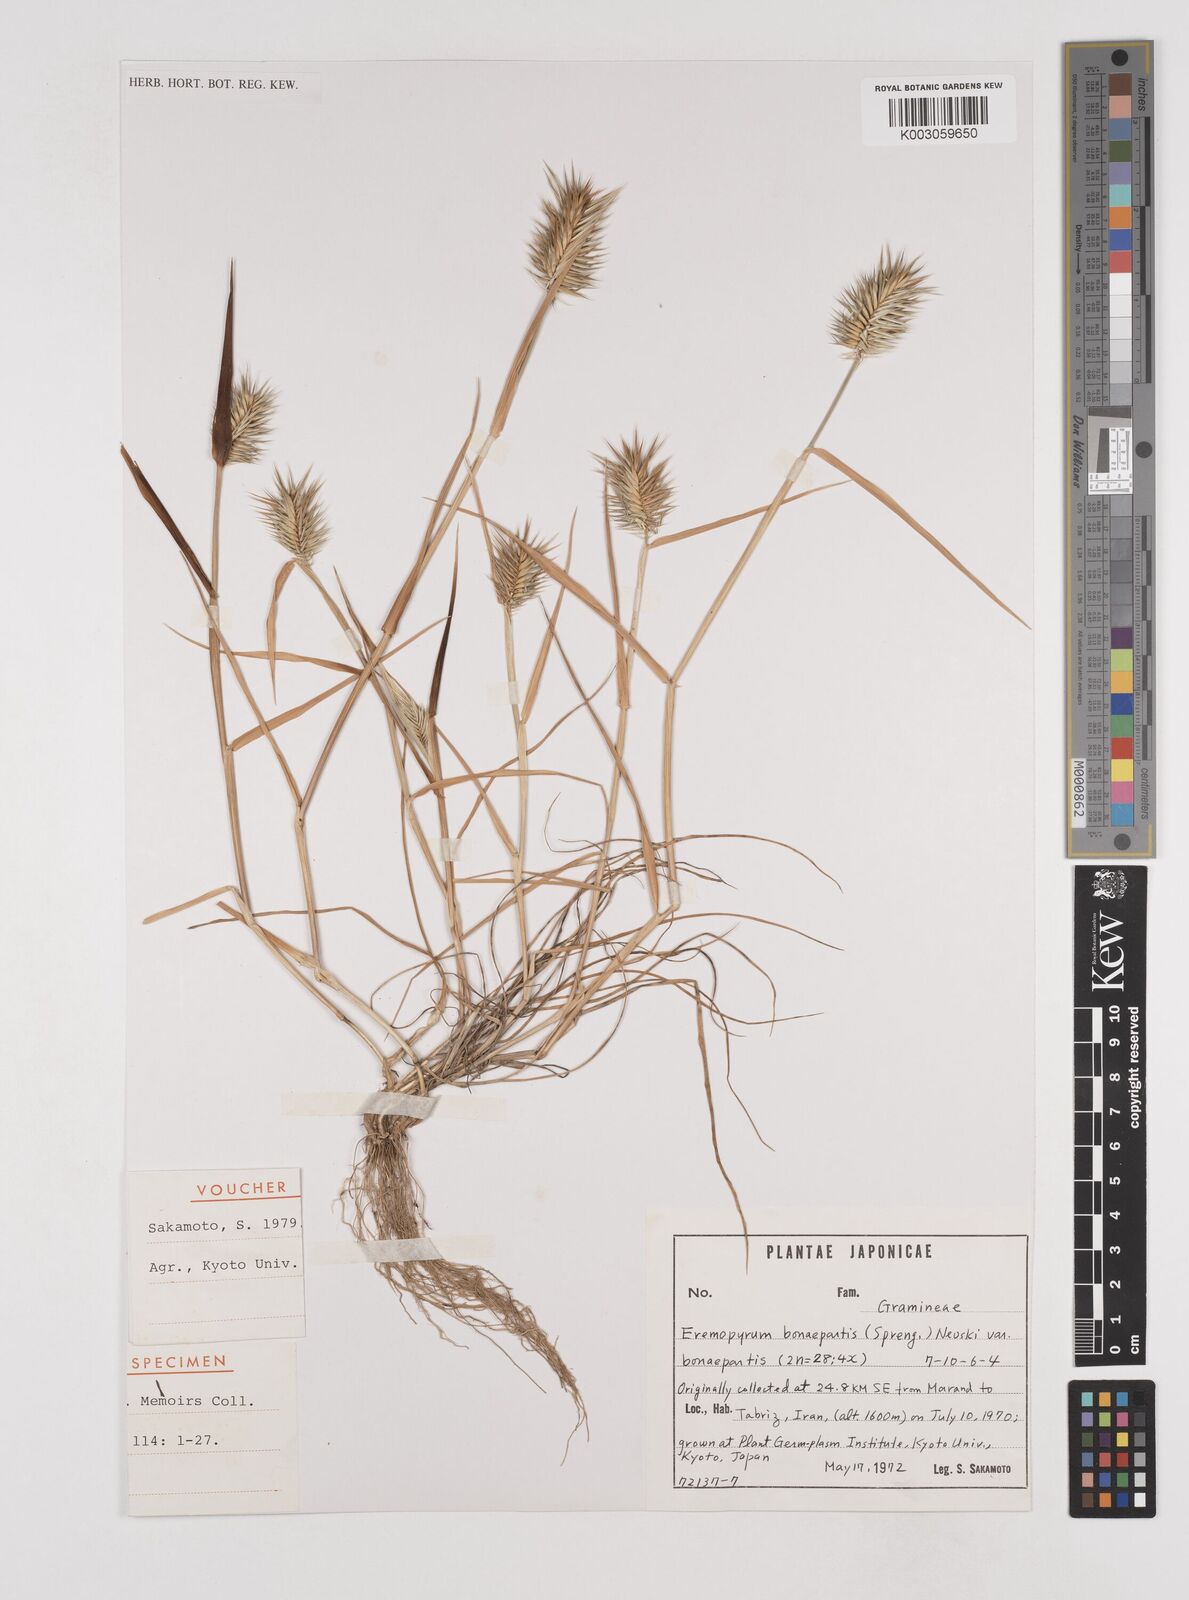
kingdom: Plantae
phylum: Tracheophyta
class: Liliopsida
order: Poales
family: Poaceae
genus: Eremopyrum
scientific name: Eremopyrum bonaepartis
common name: Tapertip false wheatgrass
